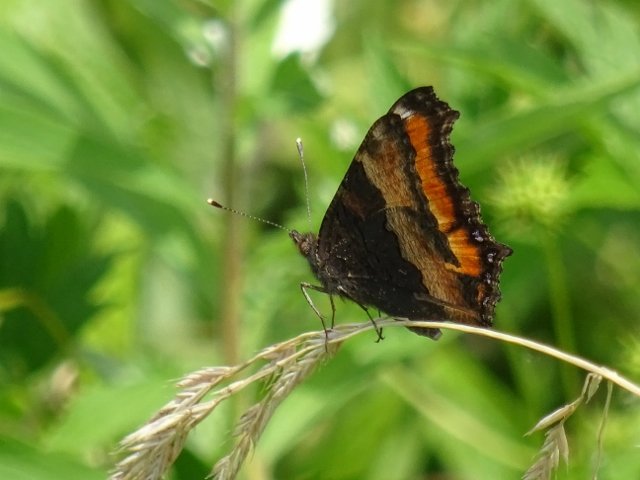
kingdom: Animalia
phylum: Arthropoda
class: Insecta
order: Lepidoptera
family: Nymphalidae
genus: Aglais
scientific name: Aglais milberti
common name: Milbert's Tortoiseshell
